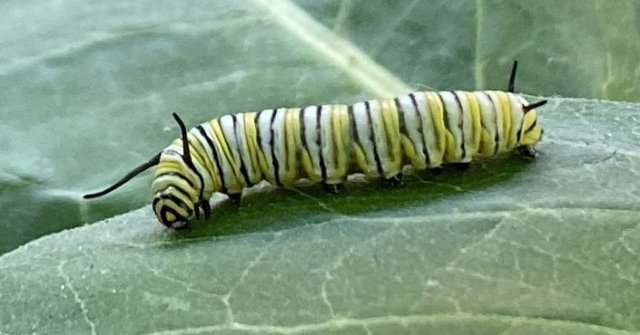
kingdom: Animalia
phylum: Arthropoda
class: Insecta
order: Lepidoptera
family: Nymphalidae
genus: Danaus
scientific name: Danaus plexippus
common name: Monarch
